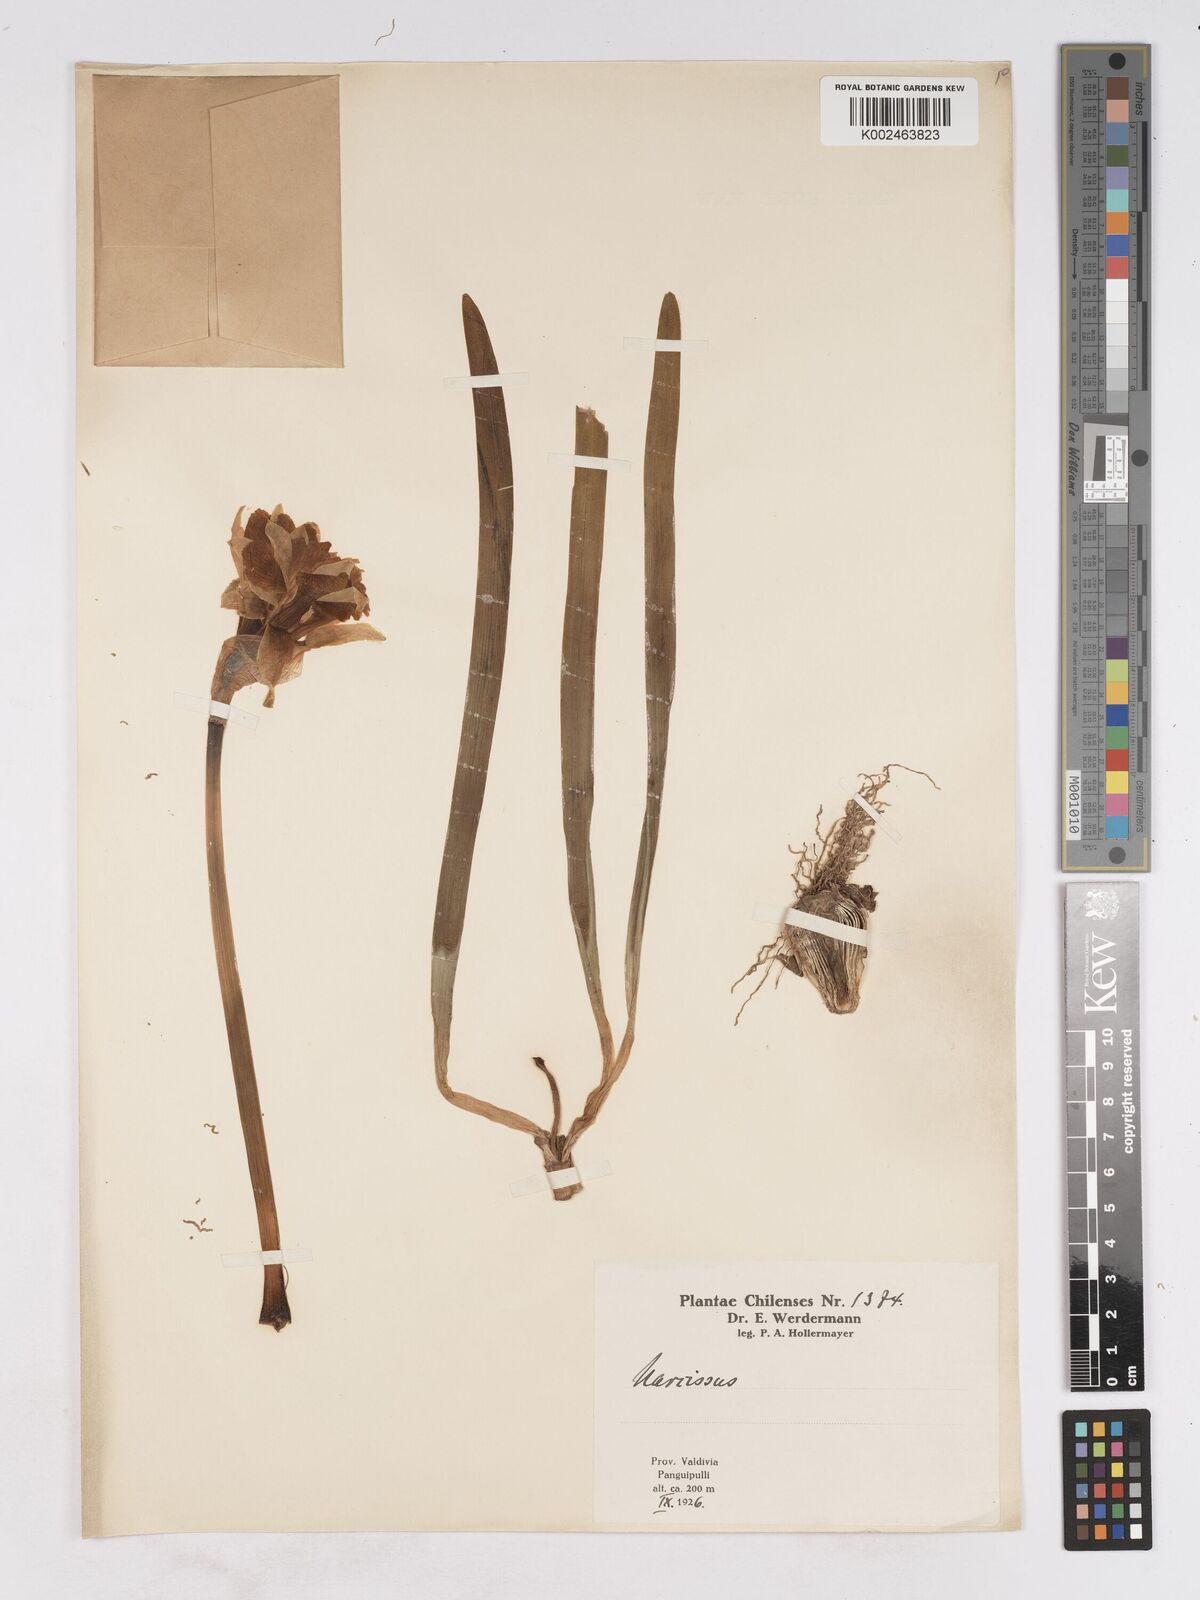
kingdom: Plantae
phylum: Tracheophyta
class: Liliopsida
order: Asparagales
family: Amaryllidaceae
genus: Narcissus
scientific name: Narcissus
